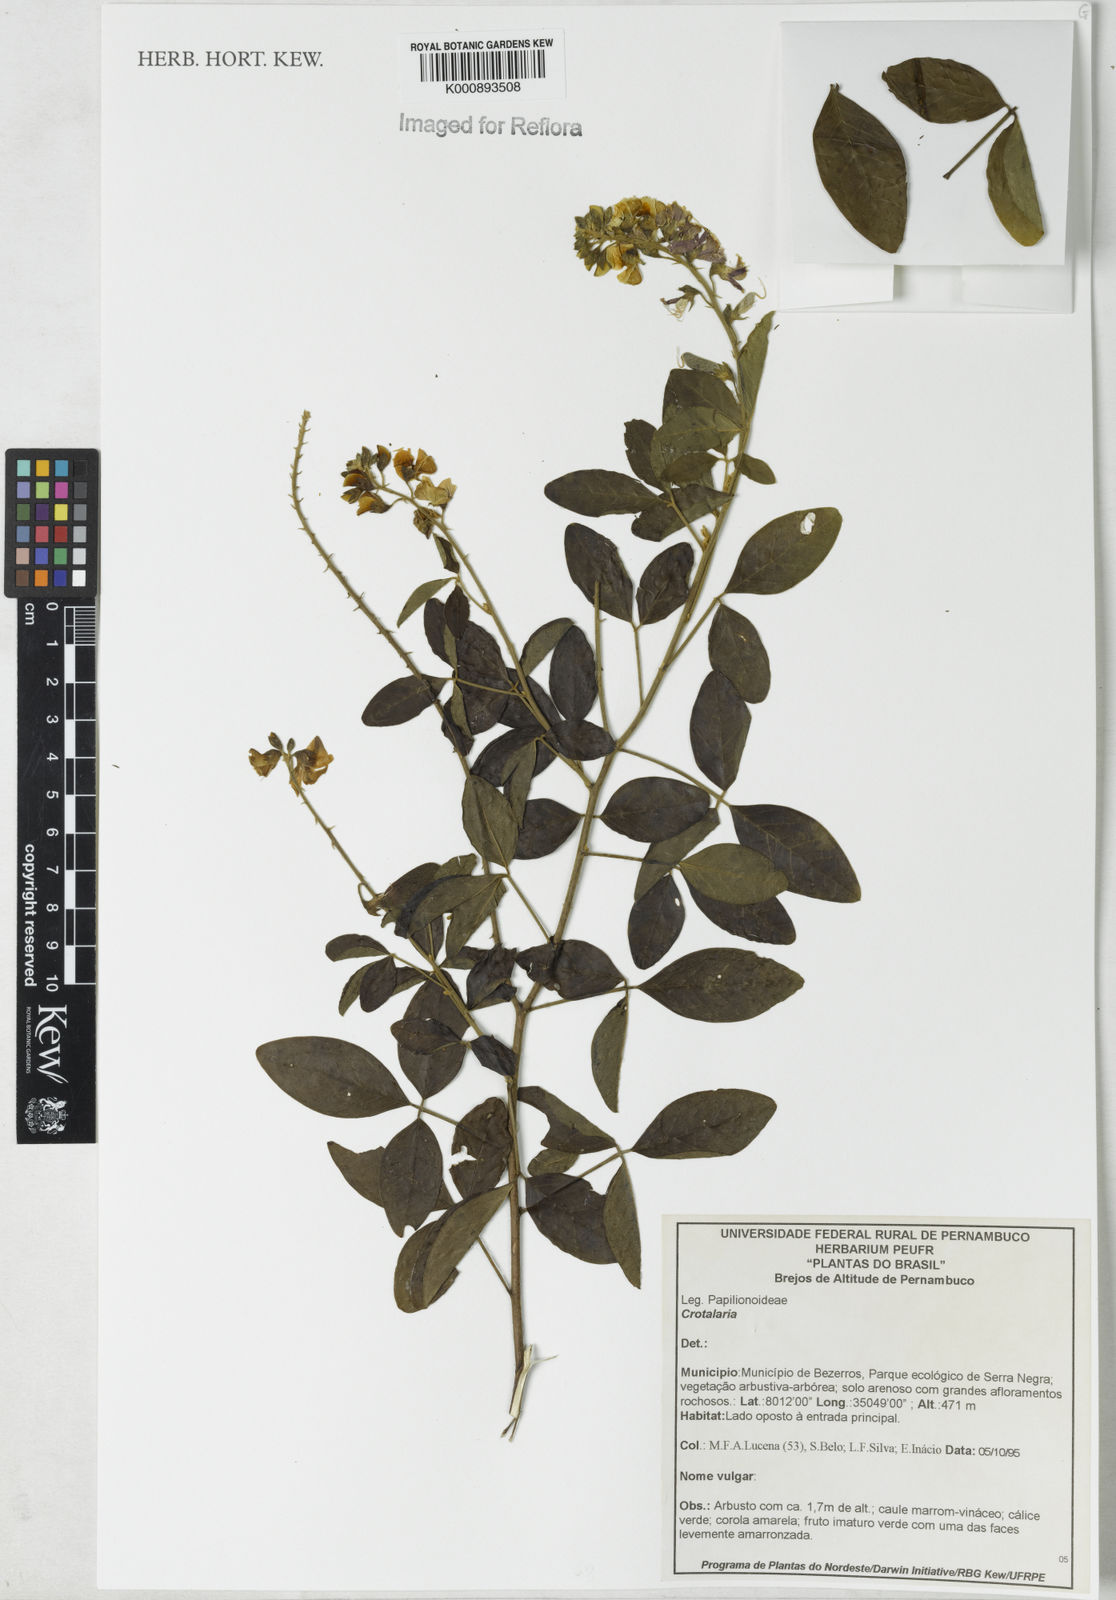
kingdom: Plantae
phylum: Tracheophyta
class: Magnoliopsida
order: Fabales
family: Fabaceae
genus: Crotalaria
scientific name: Crotalaria vitellina
